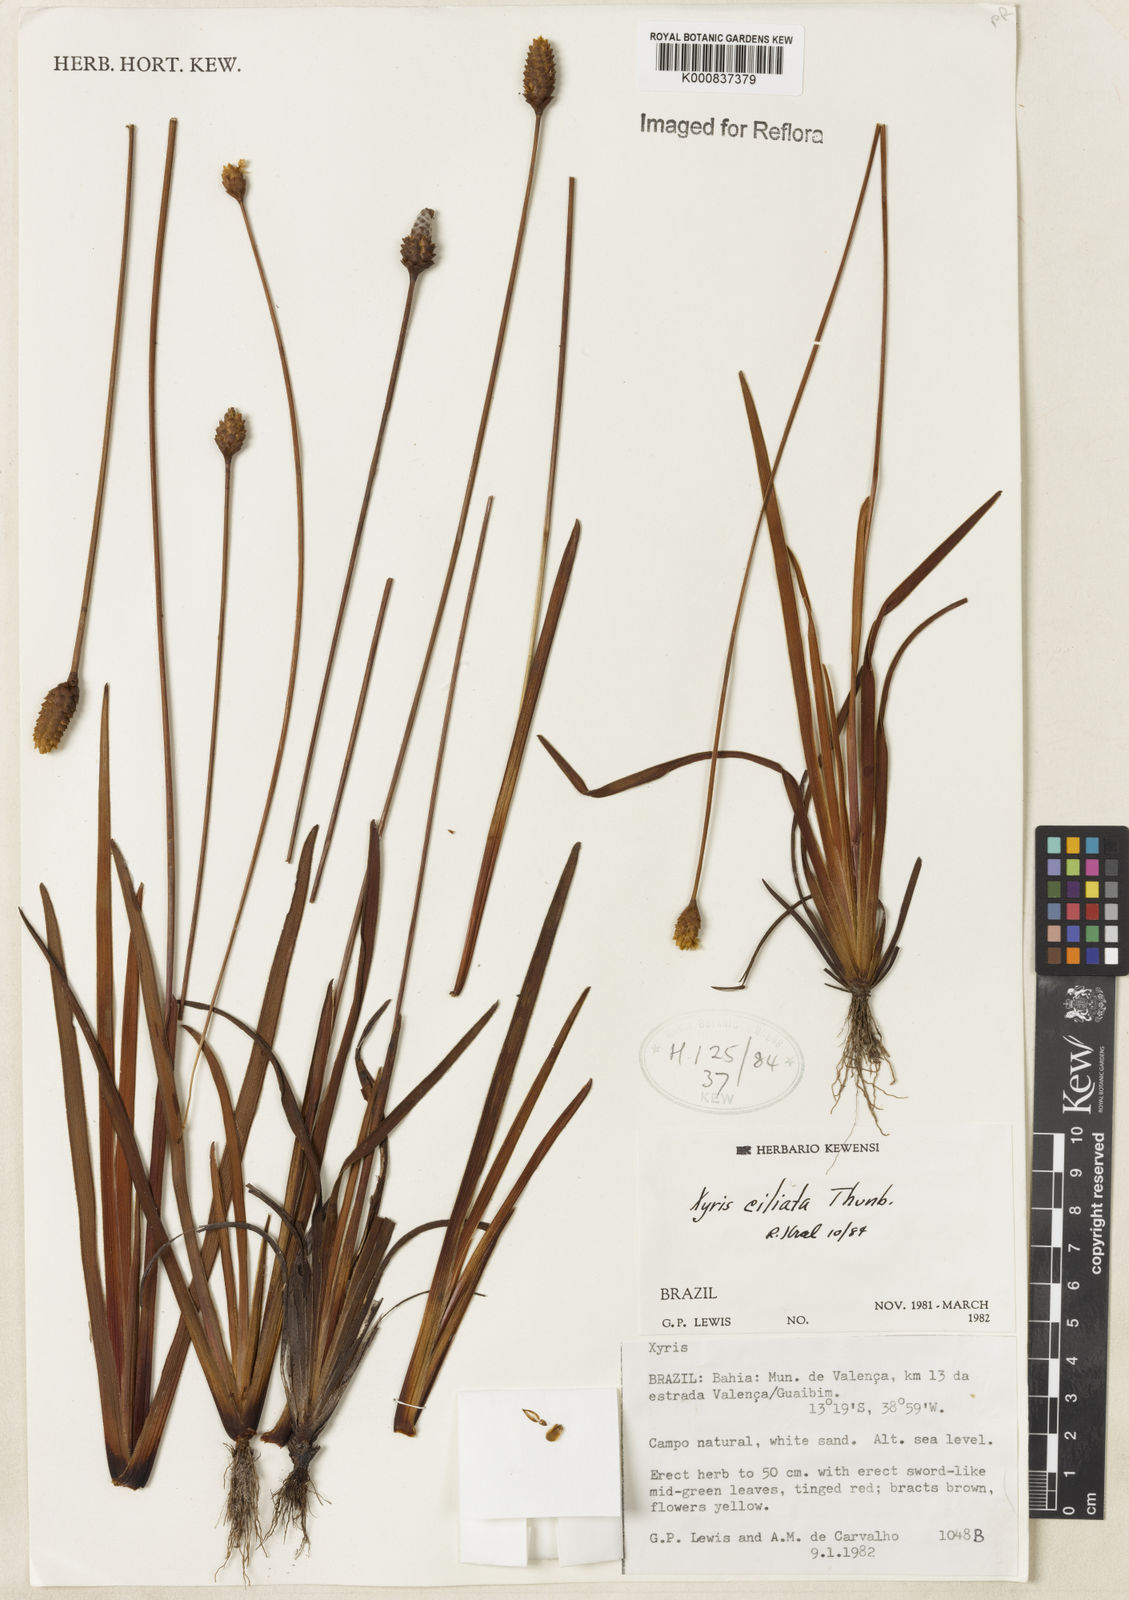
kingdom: Plantae
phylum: Tracheophyta
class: Liliopsida
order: Poales
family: Xyridaceae
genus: Xyris
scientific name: Xyris ciliata
